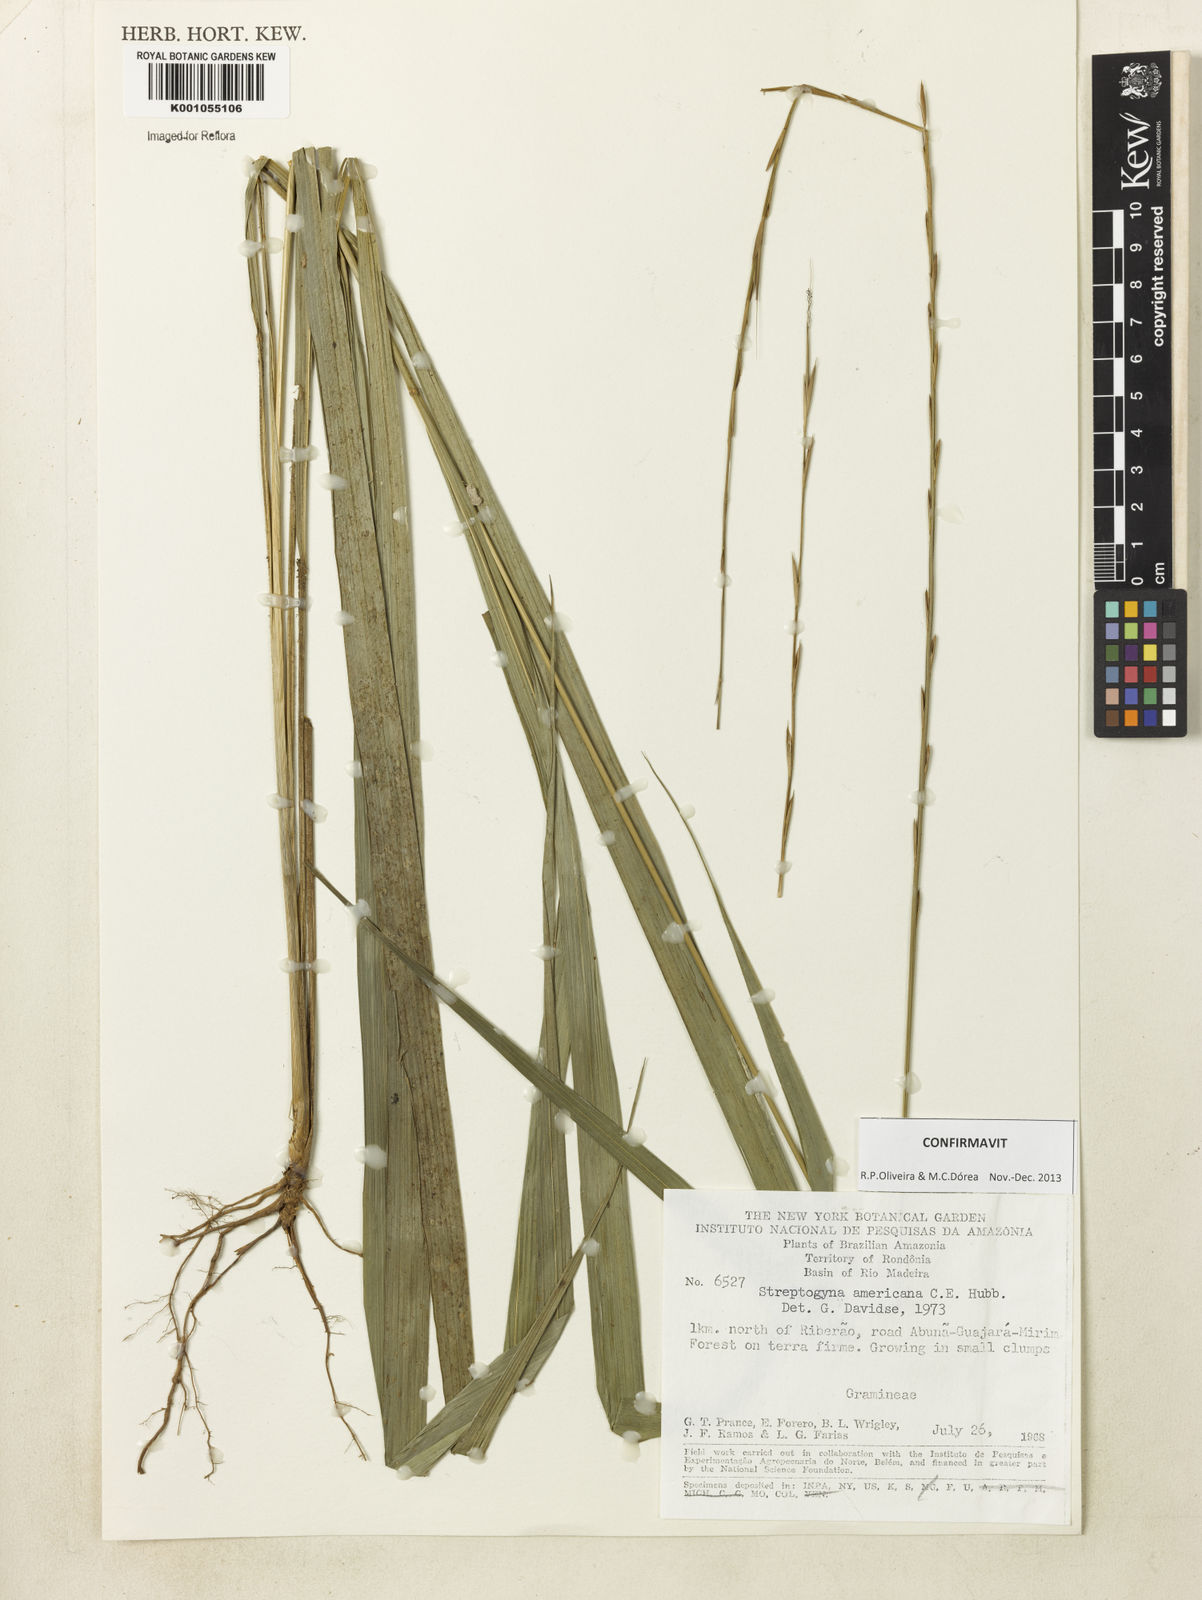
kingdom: Plantae
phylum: Tracheophyta
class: Liliopsida
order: Poales
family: Poaceae
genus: Streptogyna
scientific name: Streptogyna americana
